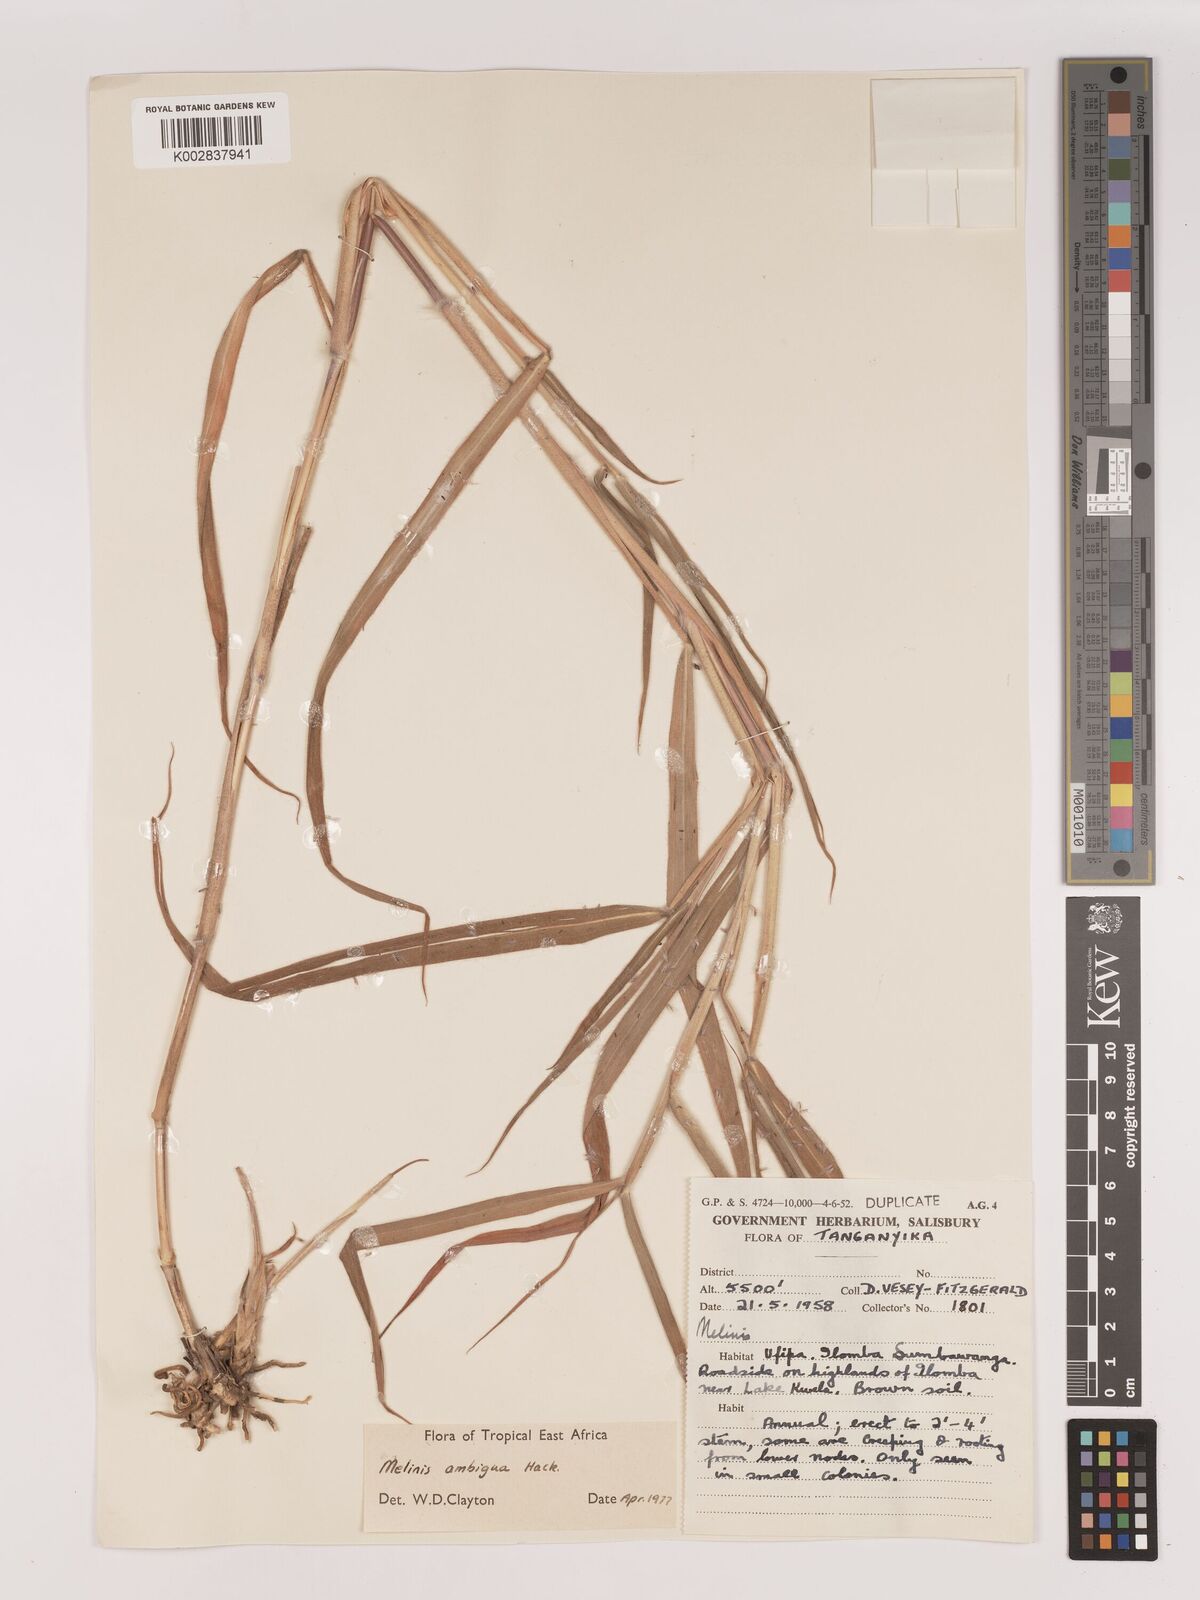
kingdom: Plantae
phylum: Tracheophyta
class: Liliopsida
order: Poales
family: Poaceae
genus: Melinis
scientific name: Melinis ambigua
